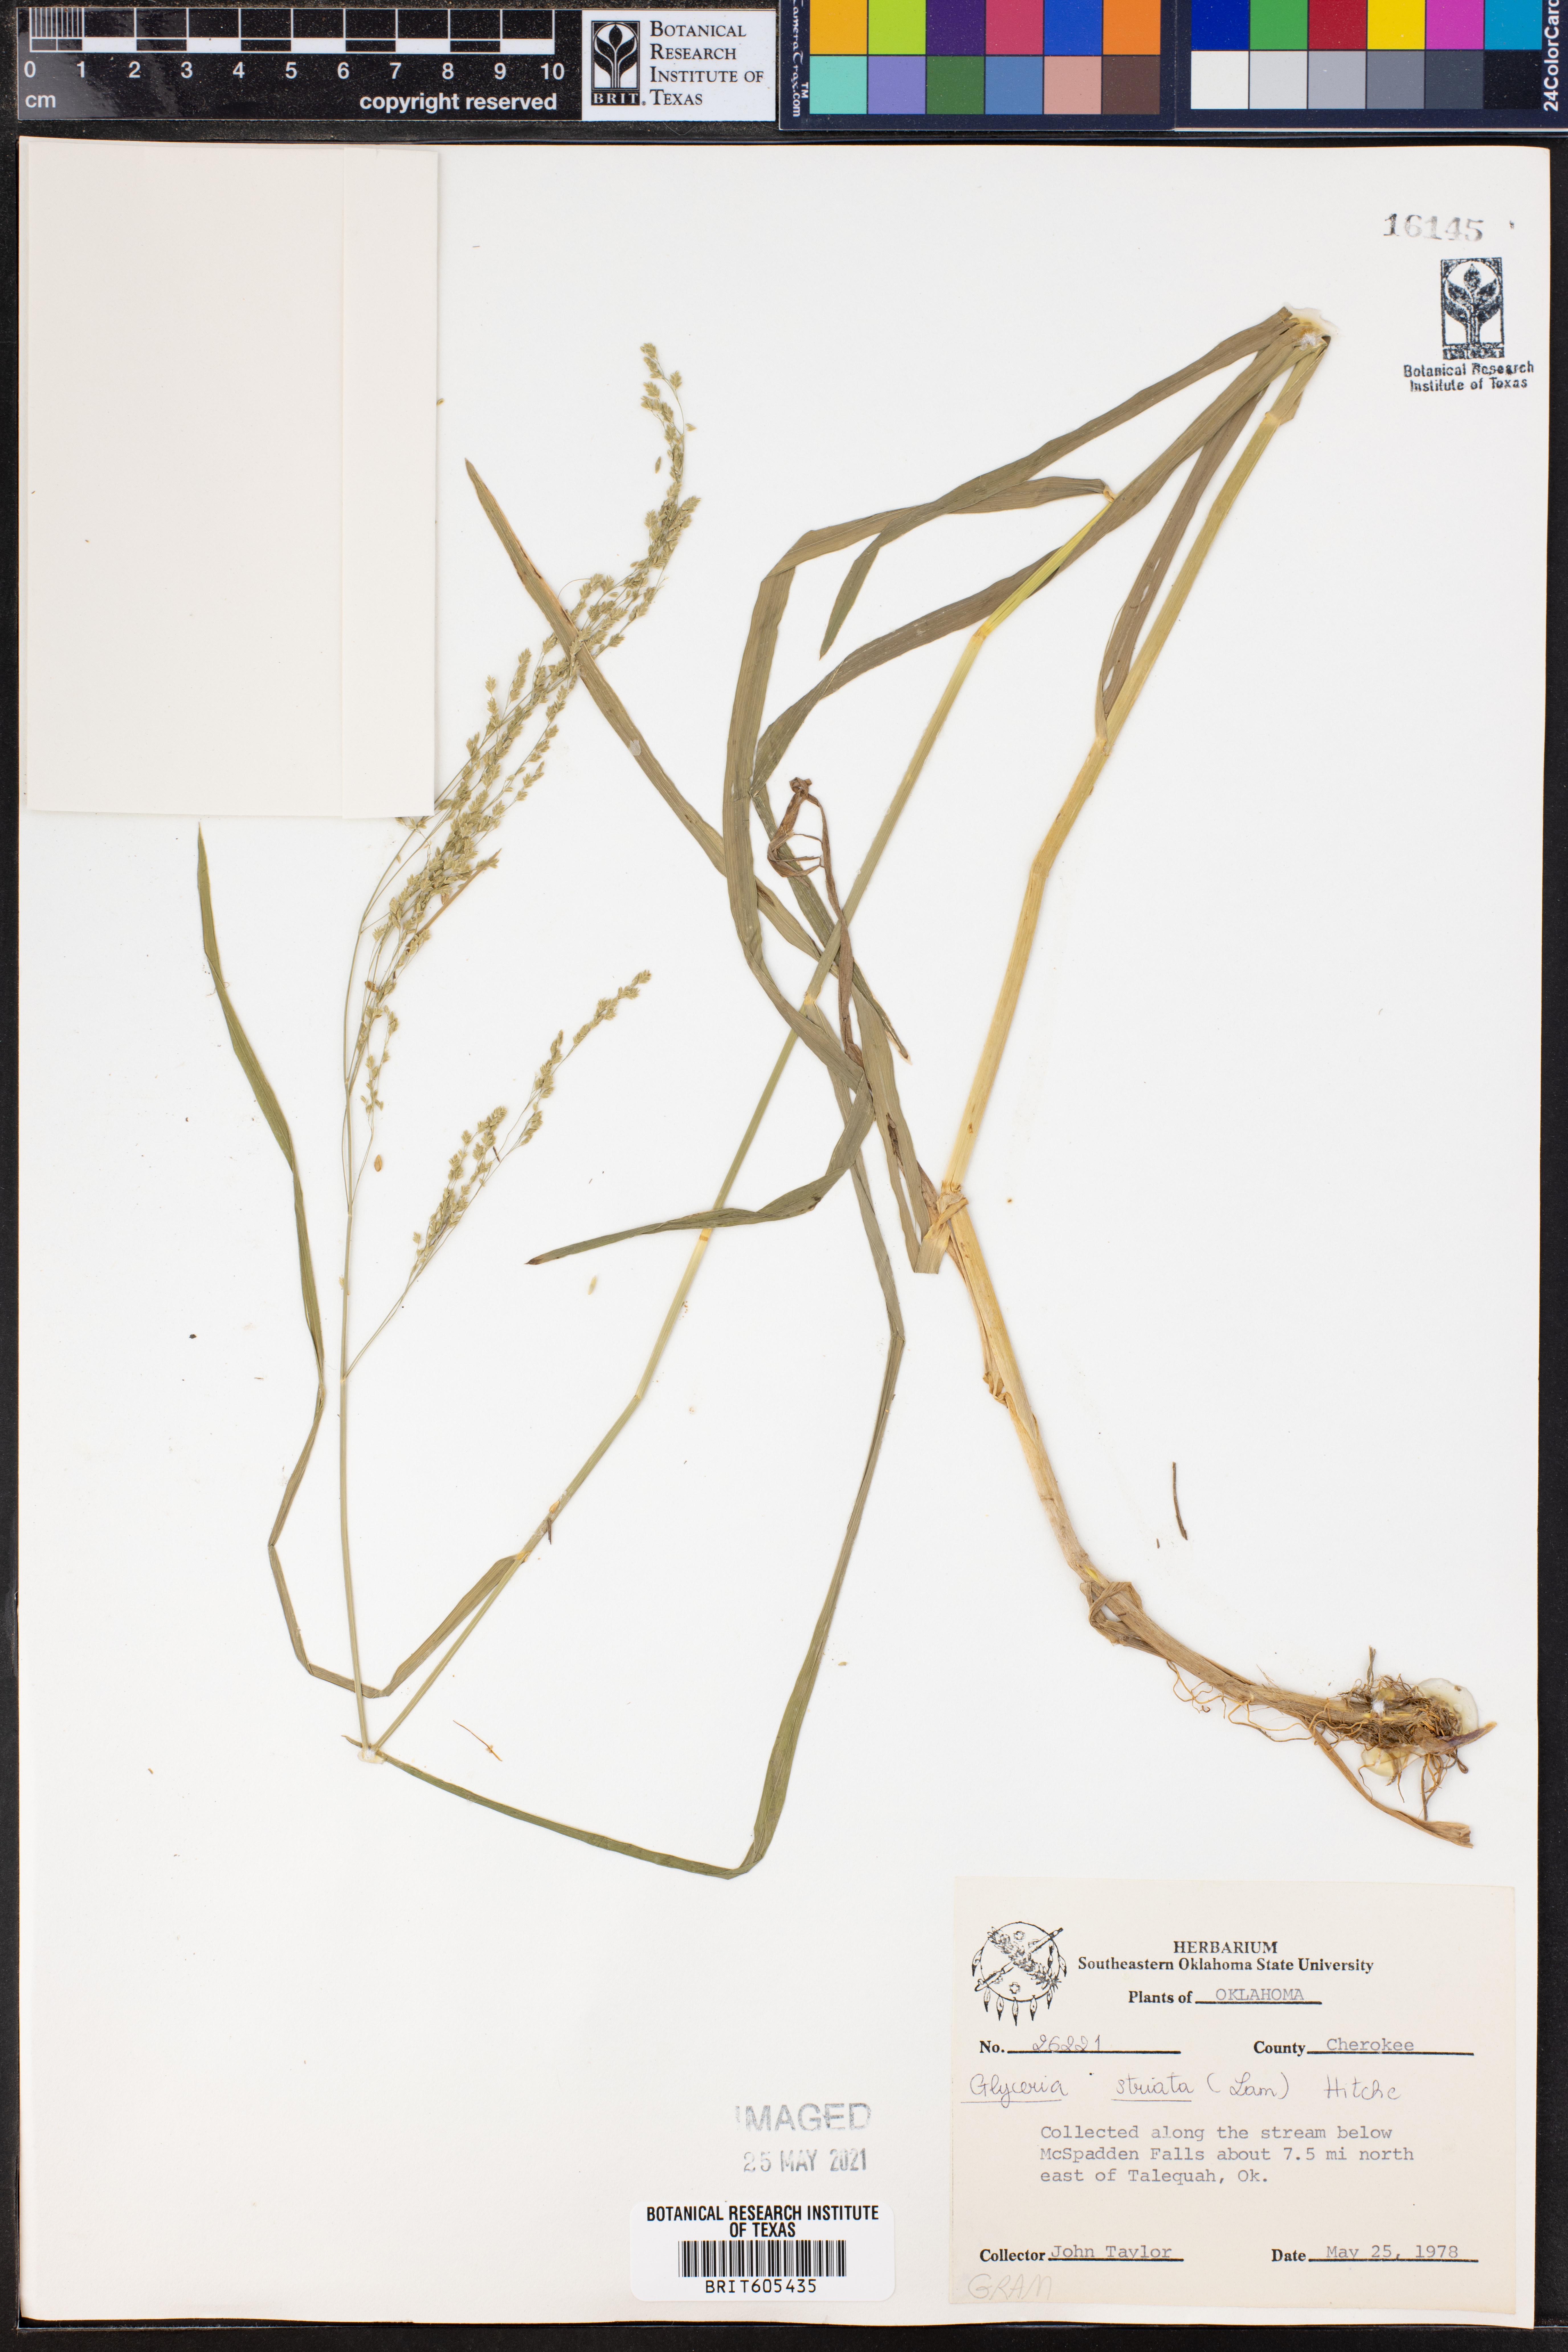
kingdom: Plantae
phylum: Tracheophyta
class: Liliopsida
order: Poales
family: Poaceae
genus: Glyceria
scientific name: Glyceria striata
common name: Fowl manna grass
